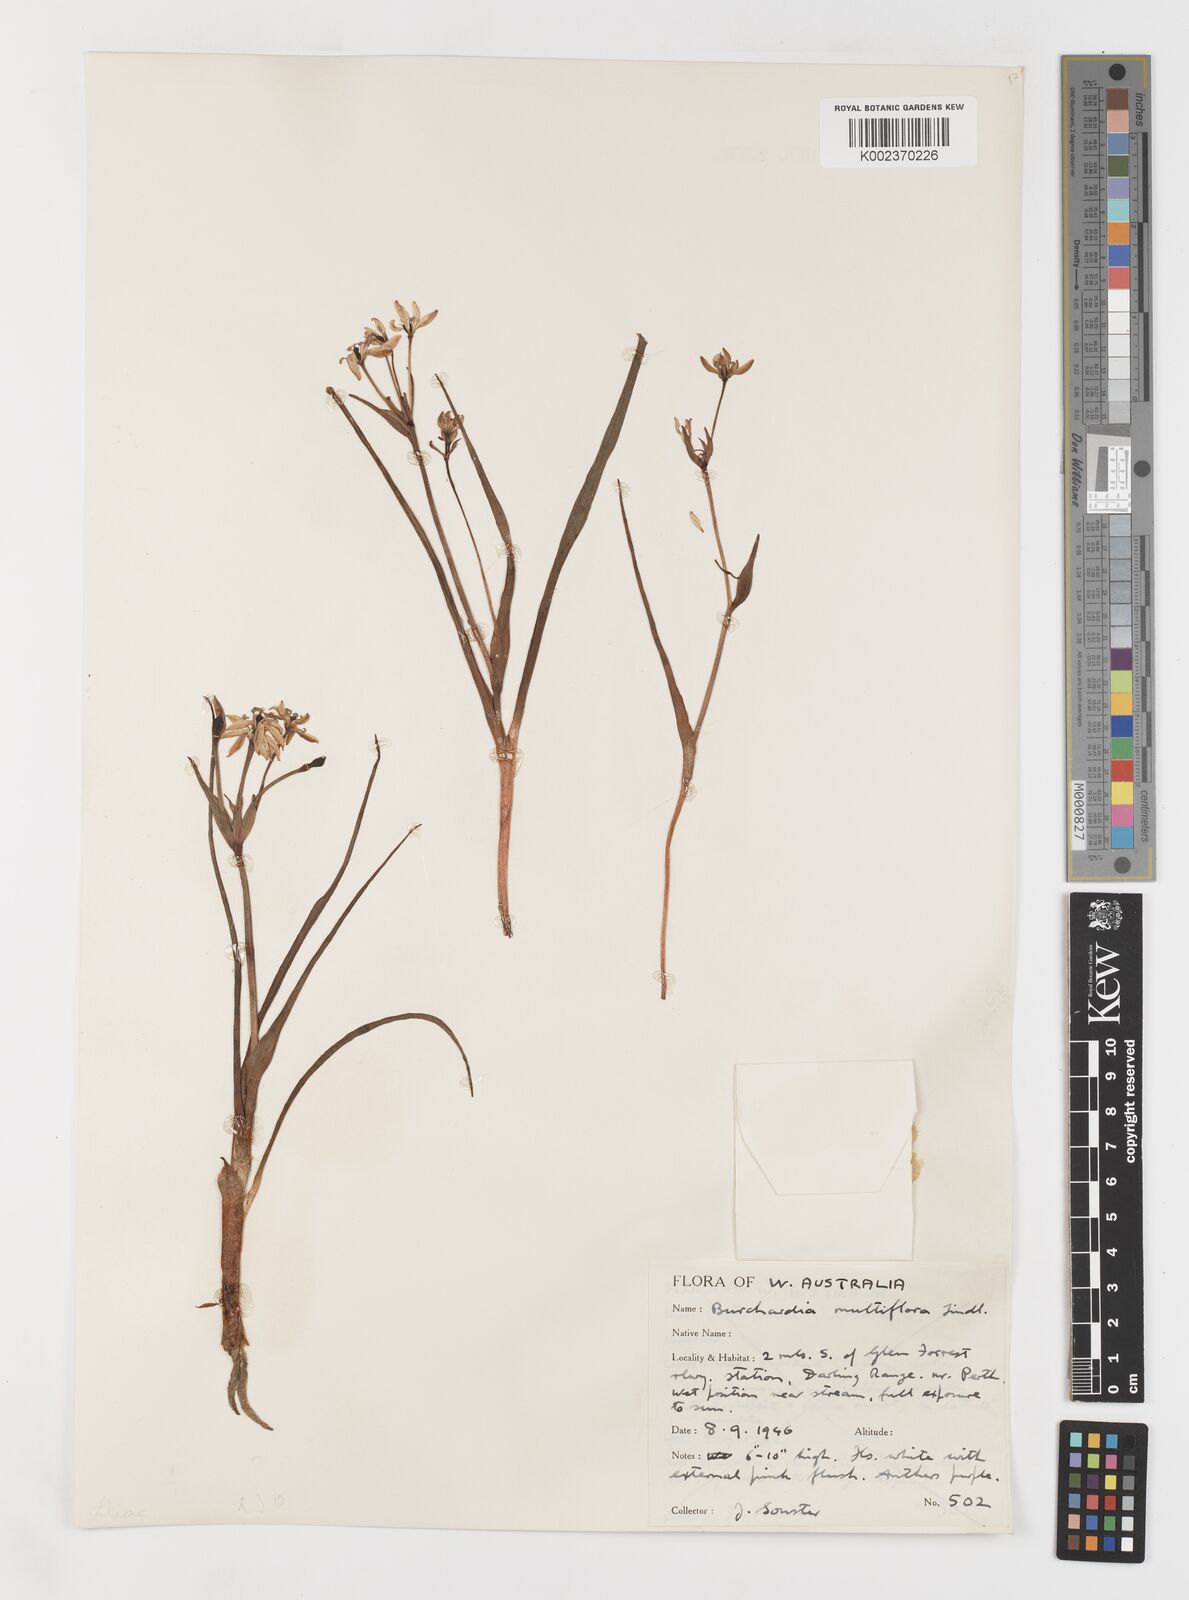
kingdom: Plantae
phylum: Tracheophyta
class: Liliopsida
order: Liliales
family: Colchicaceae
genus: Burchardia
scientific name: Burchardia multiflora
